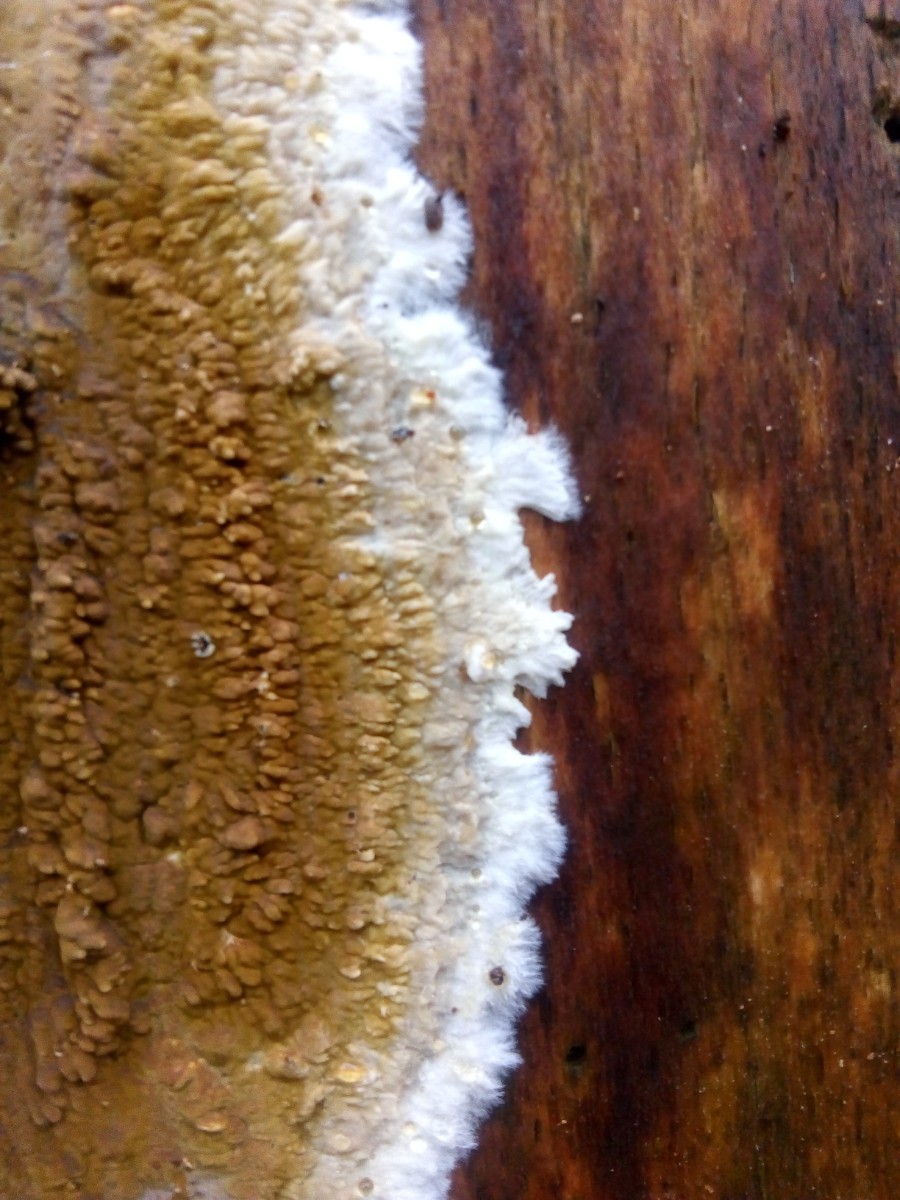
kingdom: Fungi
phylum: Basidiomycota
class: Agaricomycetes
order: Boletales
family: Coniophoraceae
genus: Coniophora
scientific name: Coniophora puteana
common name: gul tømmersvamp
